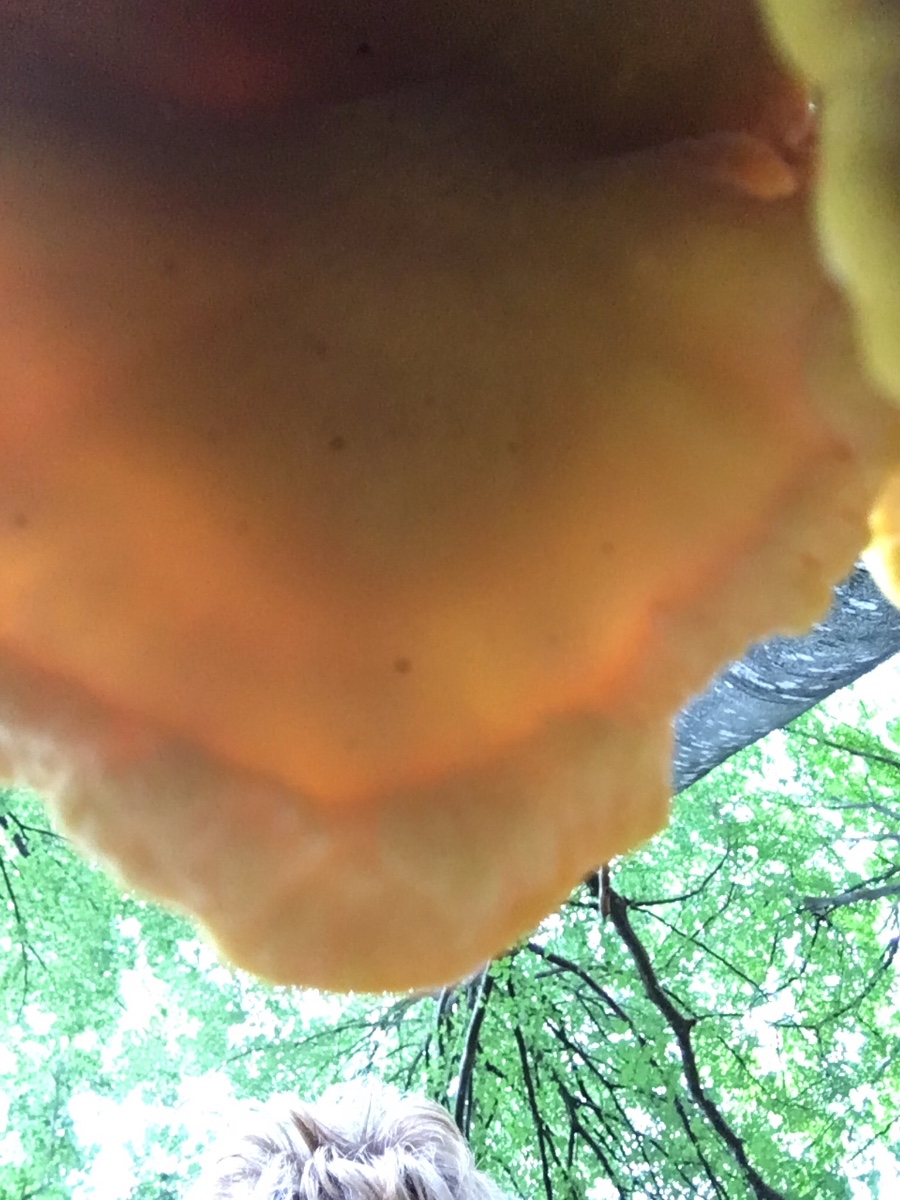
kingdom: Fungi
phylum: Basidiomycota
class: Agaricomycetes
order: Polyporales
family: Laetiporaceae
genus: Laetiporus
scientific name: Laetiporus sulphureus
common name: svovlporesvamp
